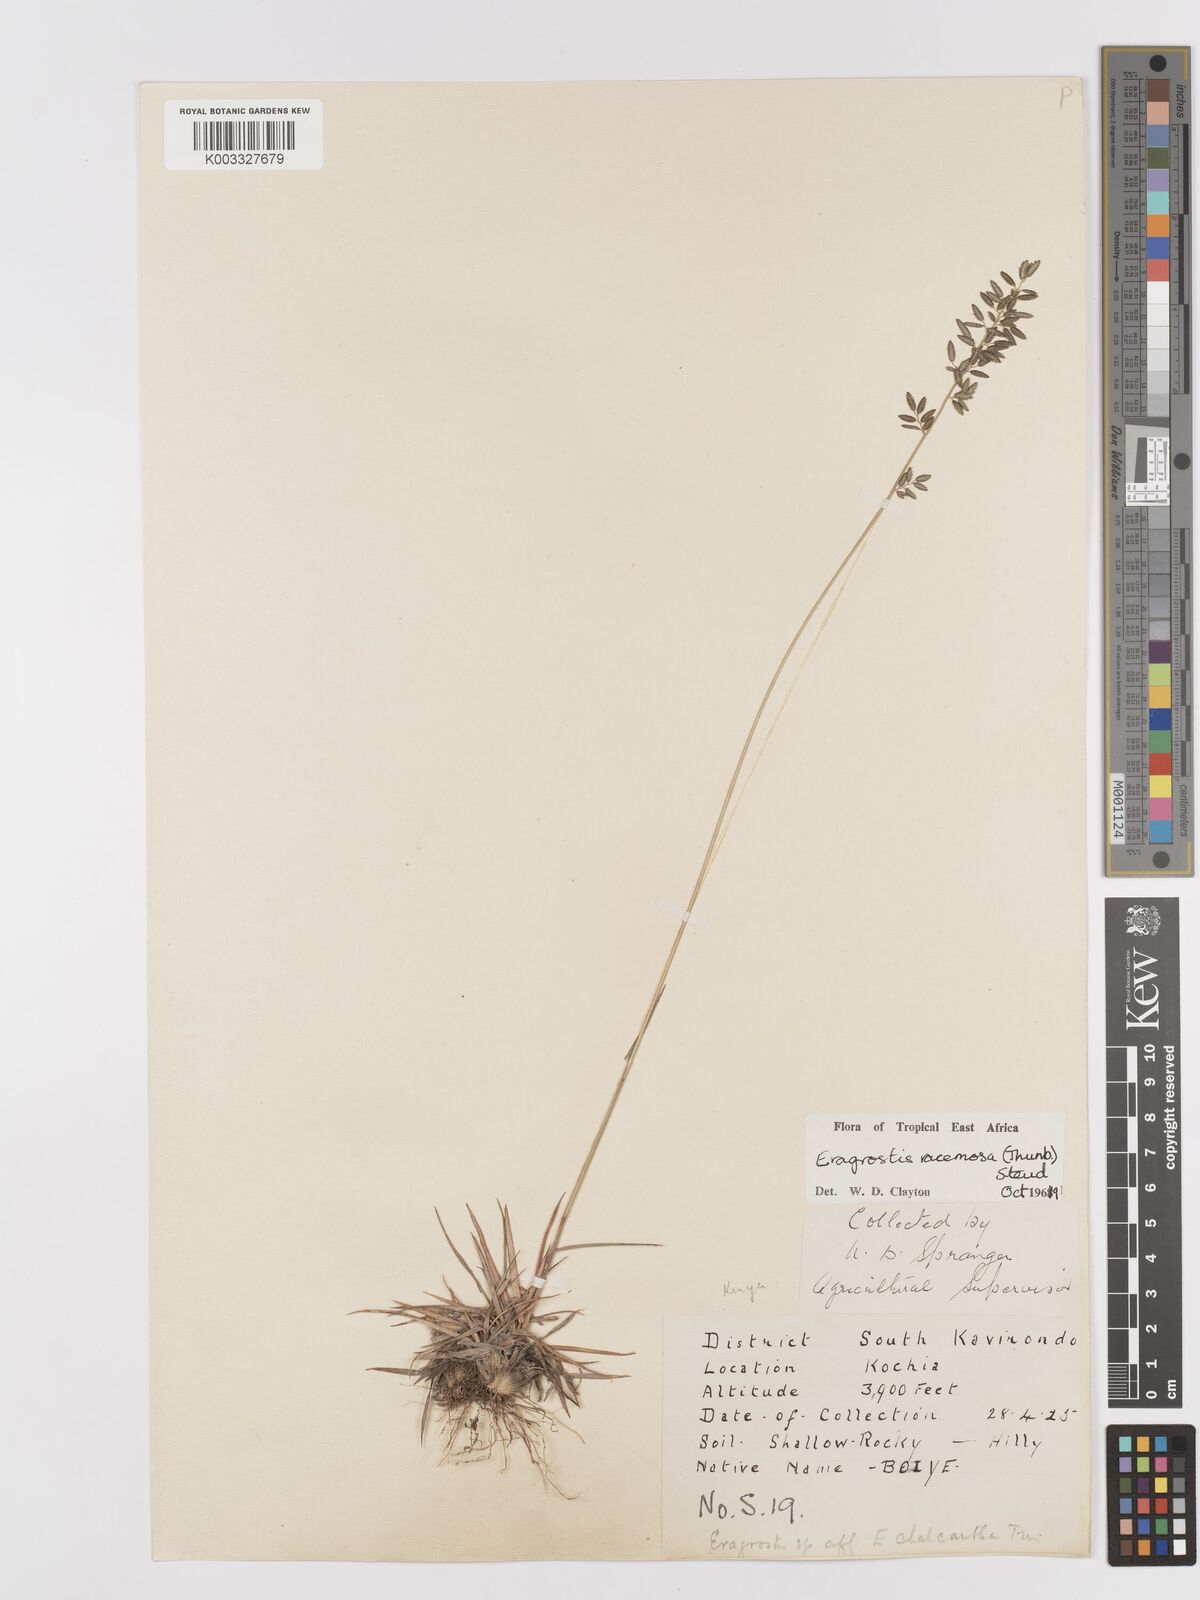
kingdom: Plantae
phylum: Tracheophyta
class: Liliopsida
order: Poales
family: Poaceae
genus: Eragrostis
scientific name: Eragrostis racemosa
